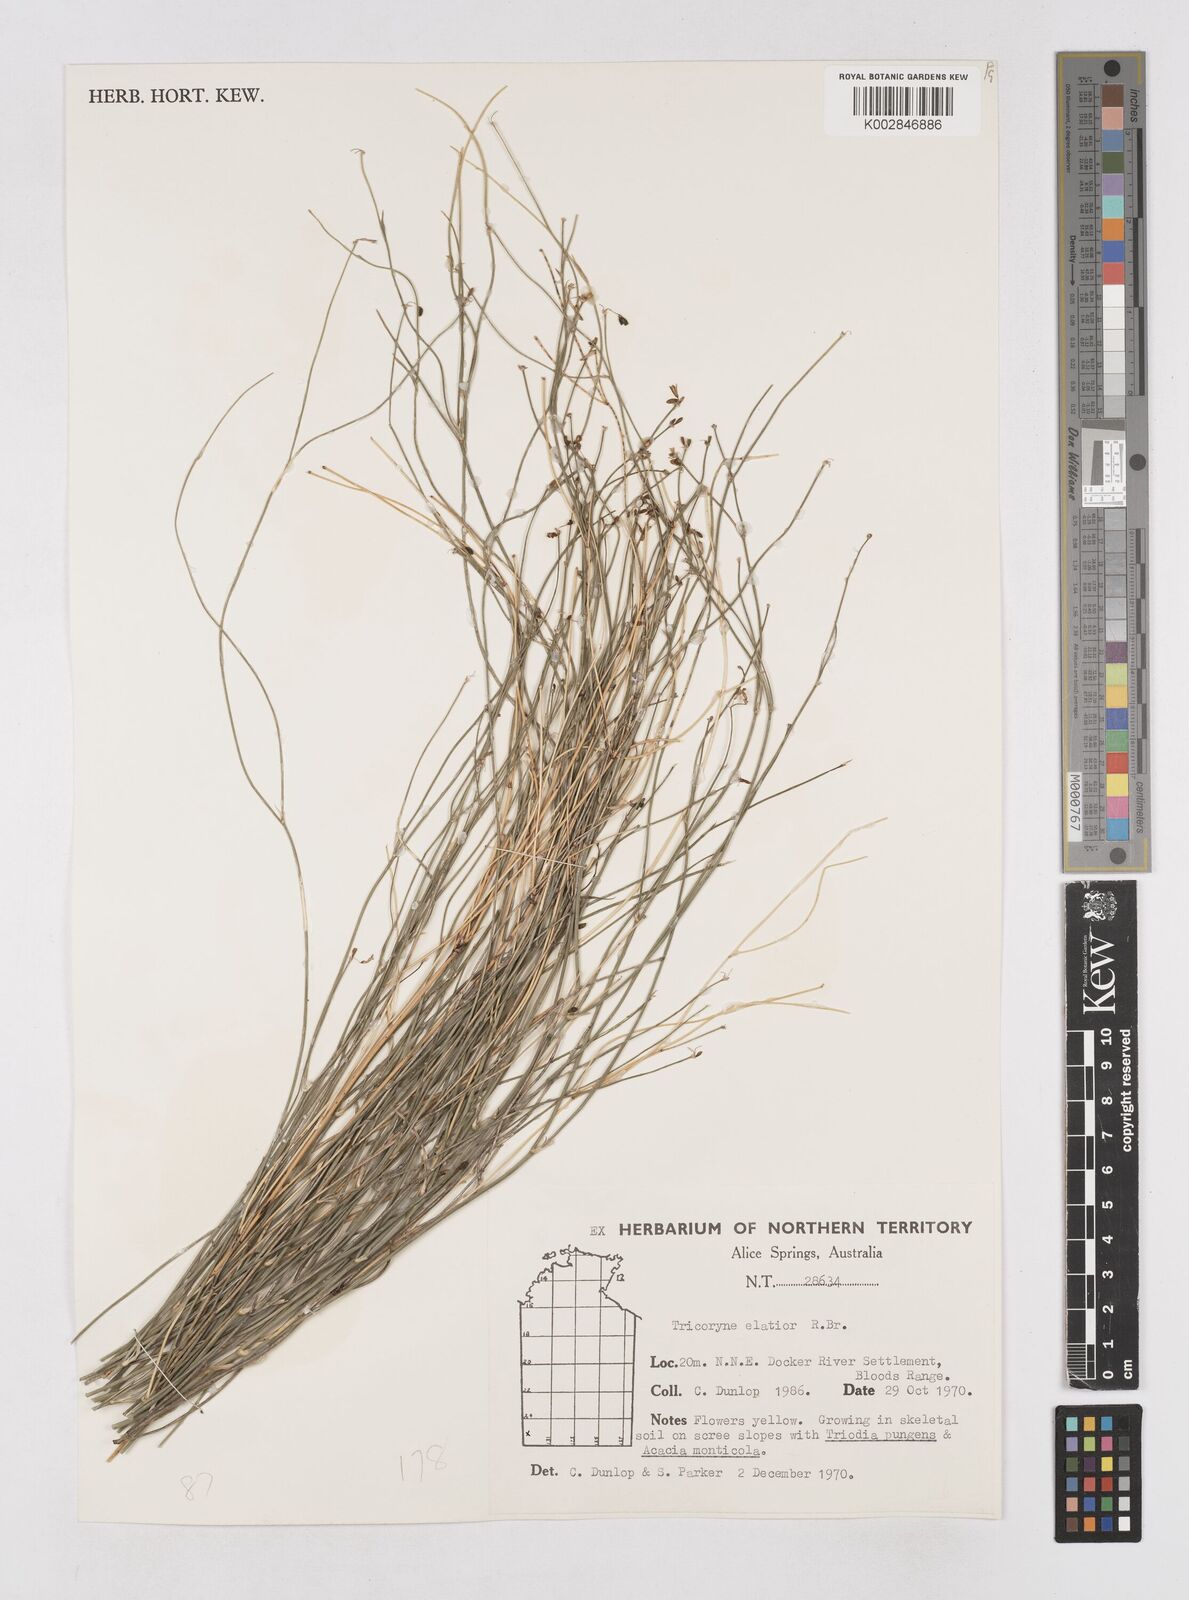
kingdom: Plantae
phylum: Tracheophyta
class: Liliopsida
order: Asparagales
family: Asphodelaceae
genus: Tricoryne
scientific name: Tricoryne elatior
